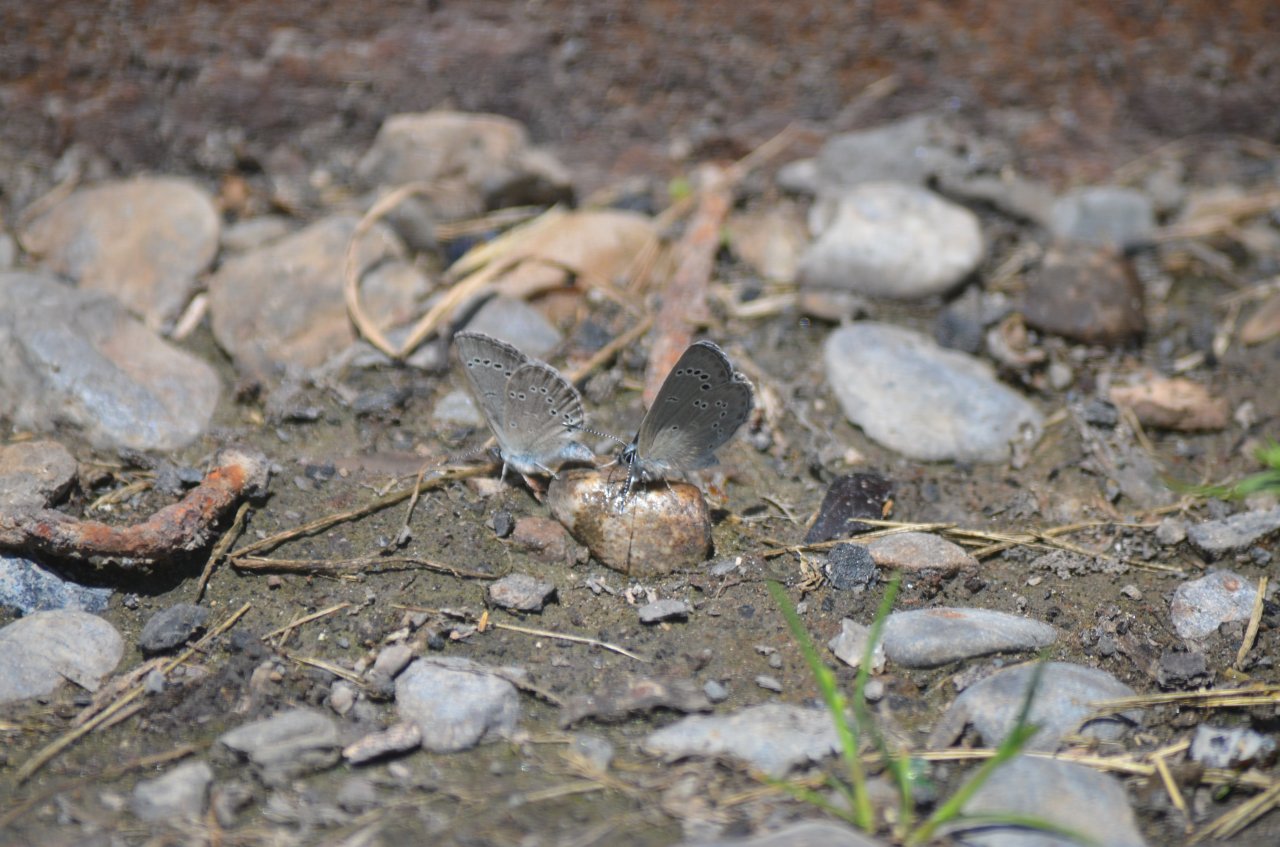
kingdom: Animalia
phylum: Arthropoda
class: Insecta
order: Lepidoptera
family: Lycaenidae
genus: Glaucopsyche
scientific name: Glaucopsyche lygdamus
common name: Silvery Blue
